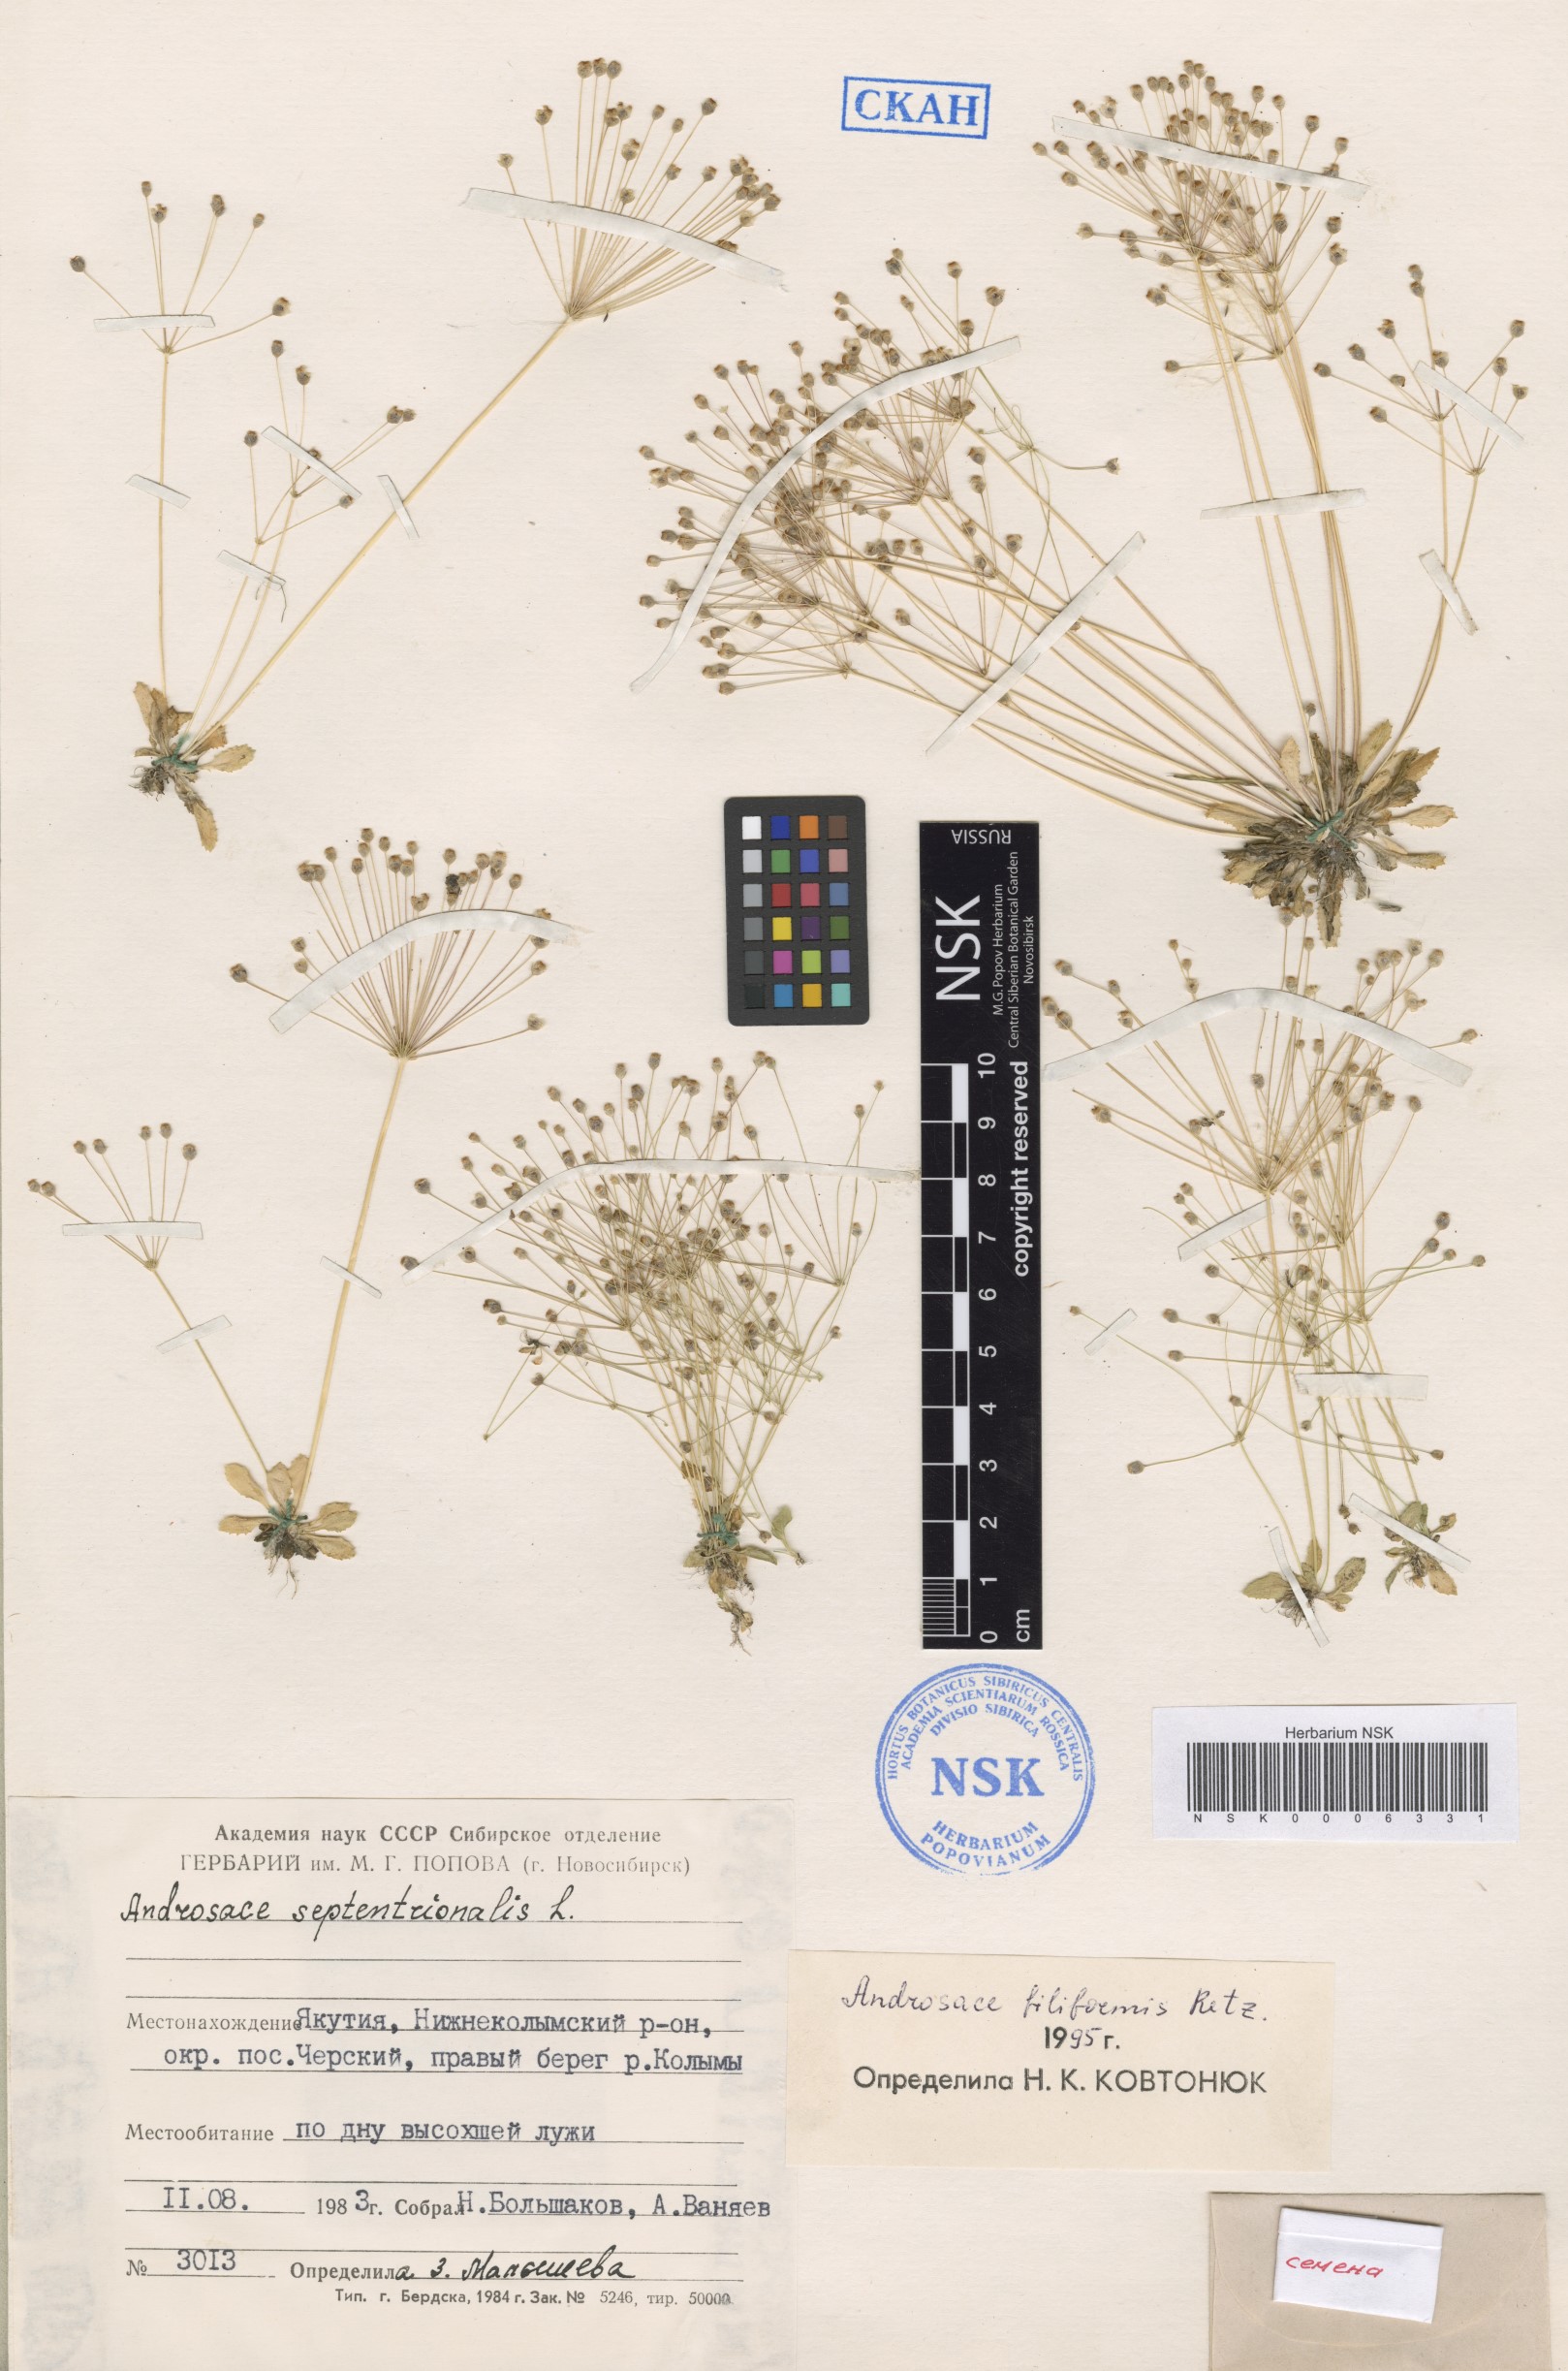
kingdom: Plantae
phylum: Tracheophyta
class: Magnoliopsida
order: Ericales
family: Primulaceae
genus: Androsace
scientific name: Androsace filiformis
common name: Filiform rock jasmine
